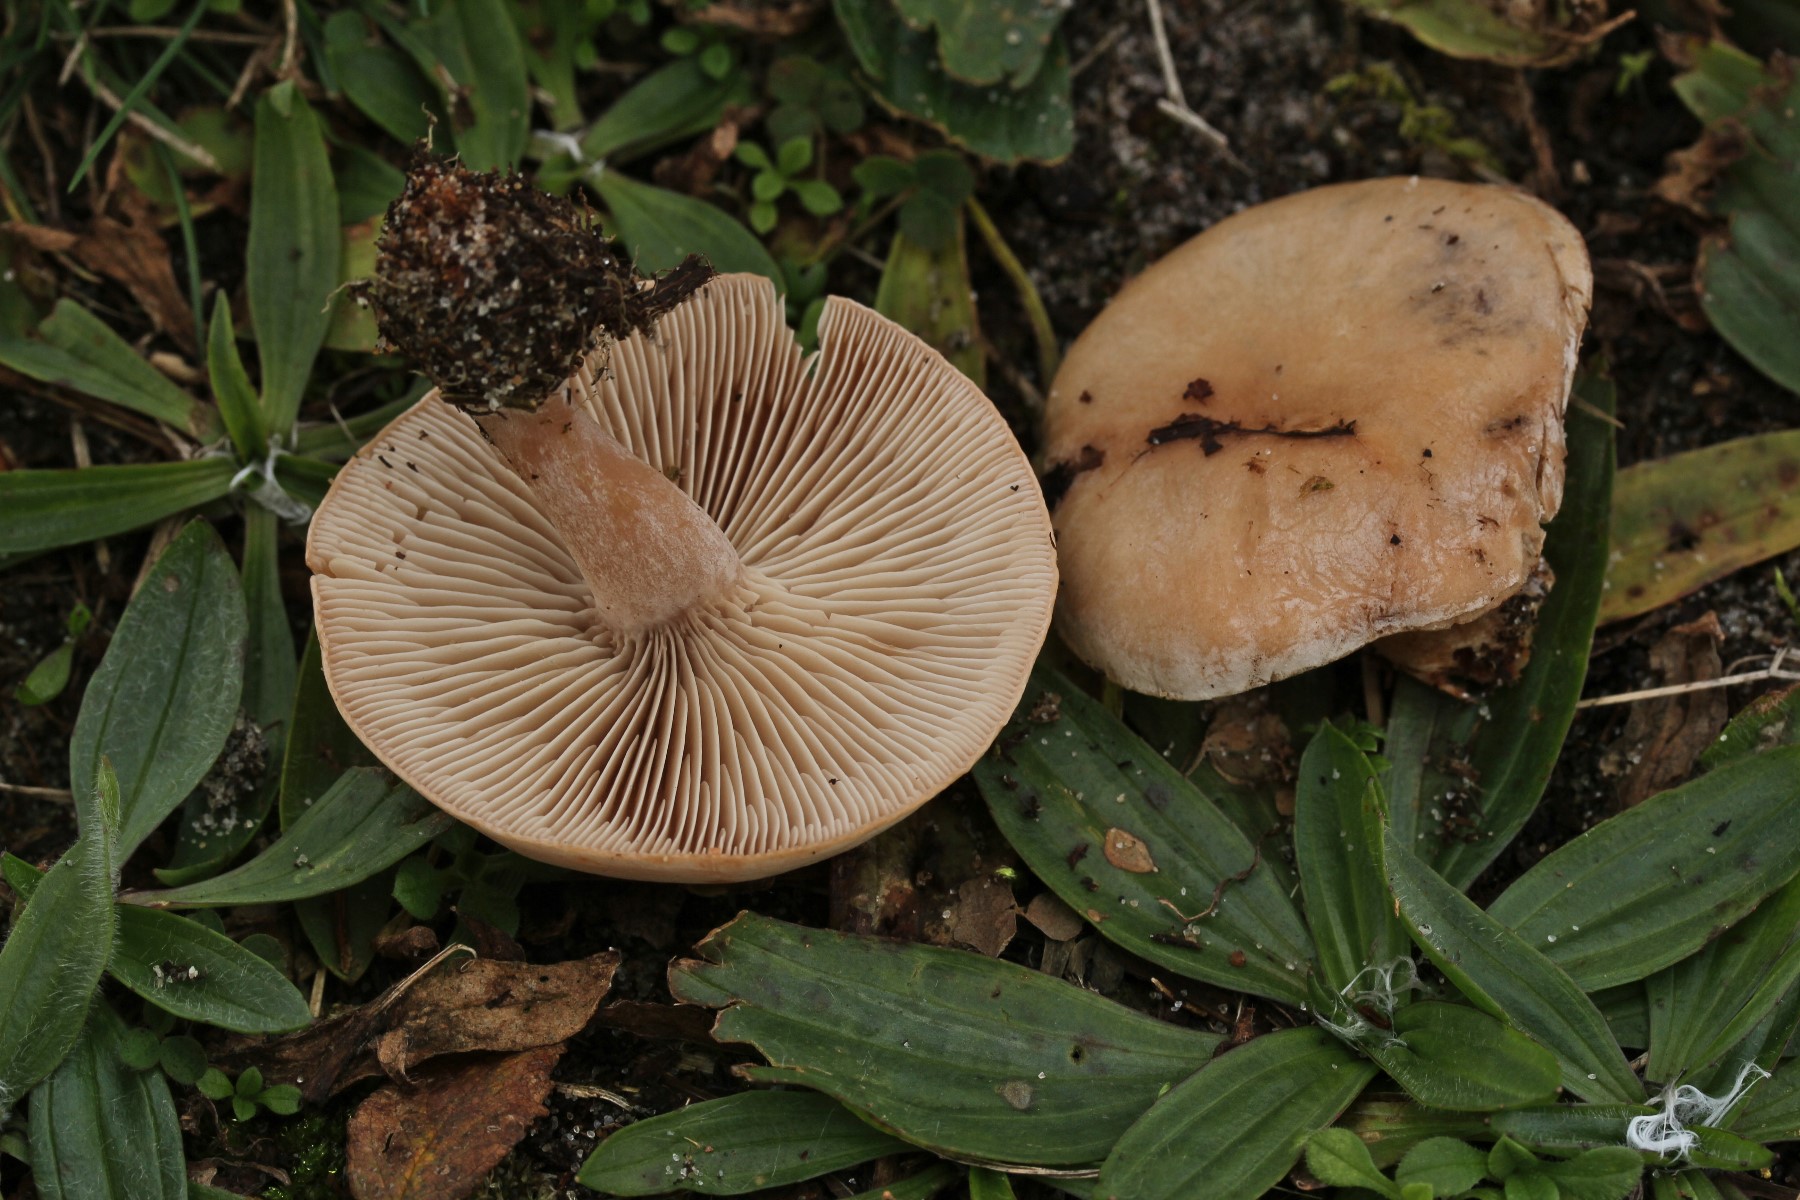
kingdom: Fungi
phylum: Basidiomycota
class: Agaricomycetes
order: Agaricales
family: Tricholomataceae
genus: Clitocybe
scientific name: Clitocybe rivulosa
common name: eng-tragthat
